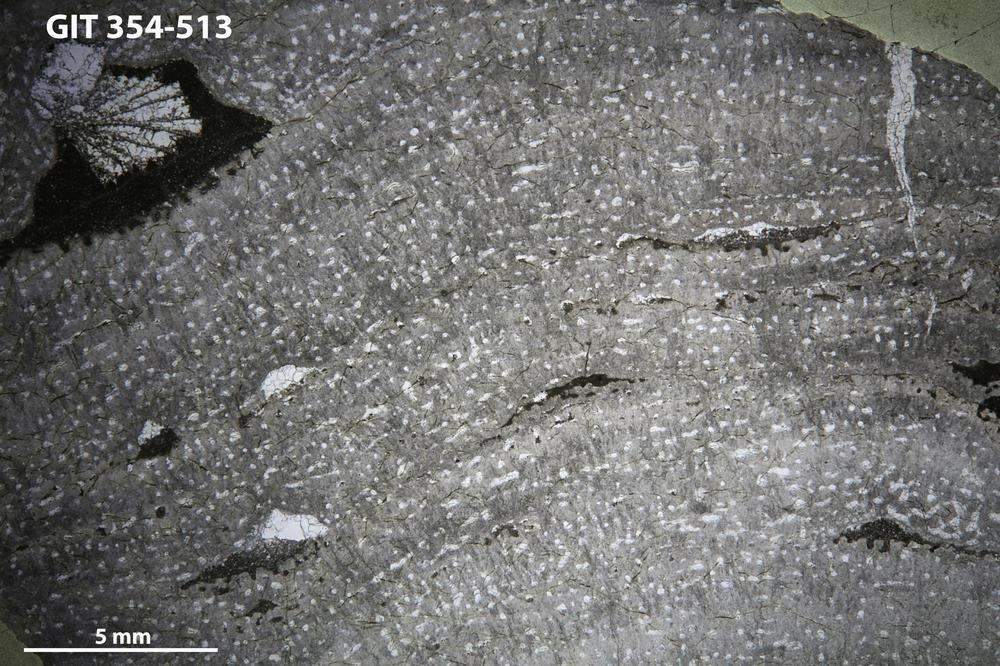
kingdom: Animalia
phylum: Porifera
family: Stromatoporidae
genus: Eostromatopora
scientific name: Eostromatopora
